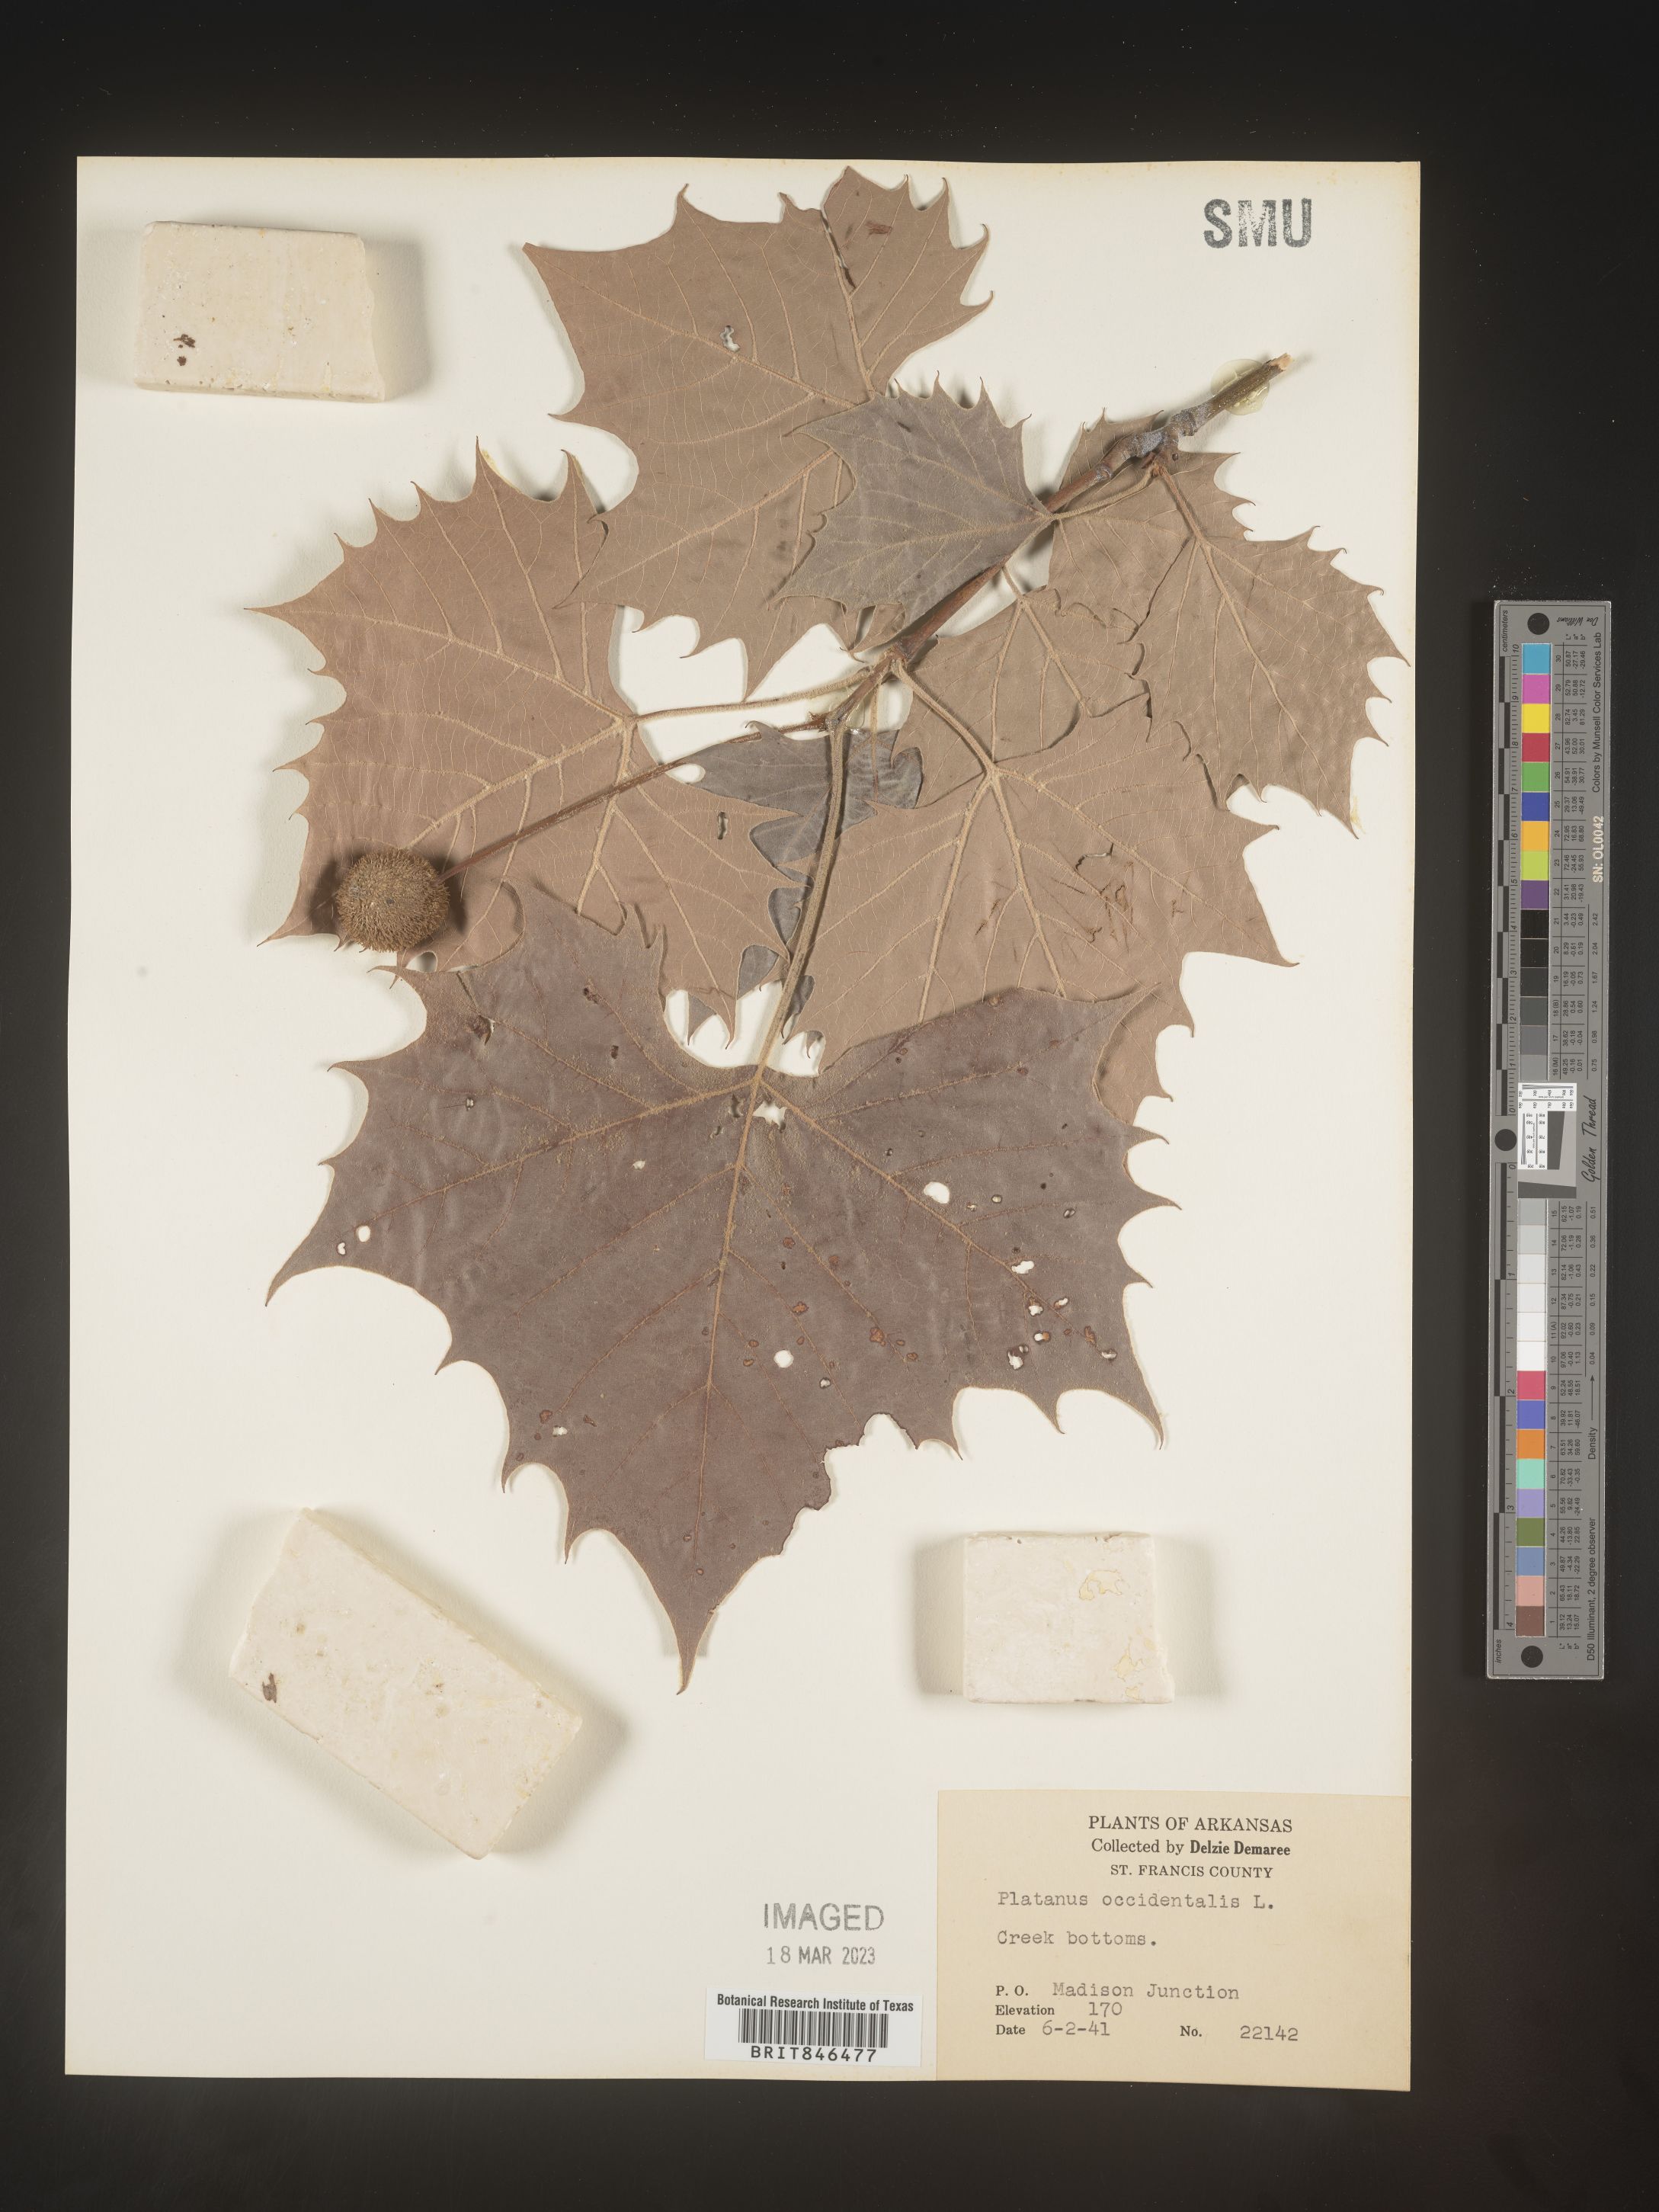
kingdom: Plantae
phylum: Tracheophyta
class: Magnoliopsida
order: Proteales
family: Platanaceae
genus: Platanus
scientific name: Platanus occidentalis
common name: American sycamore
